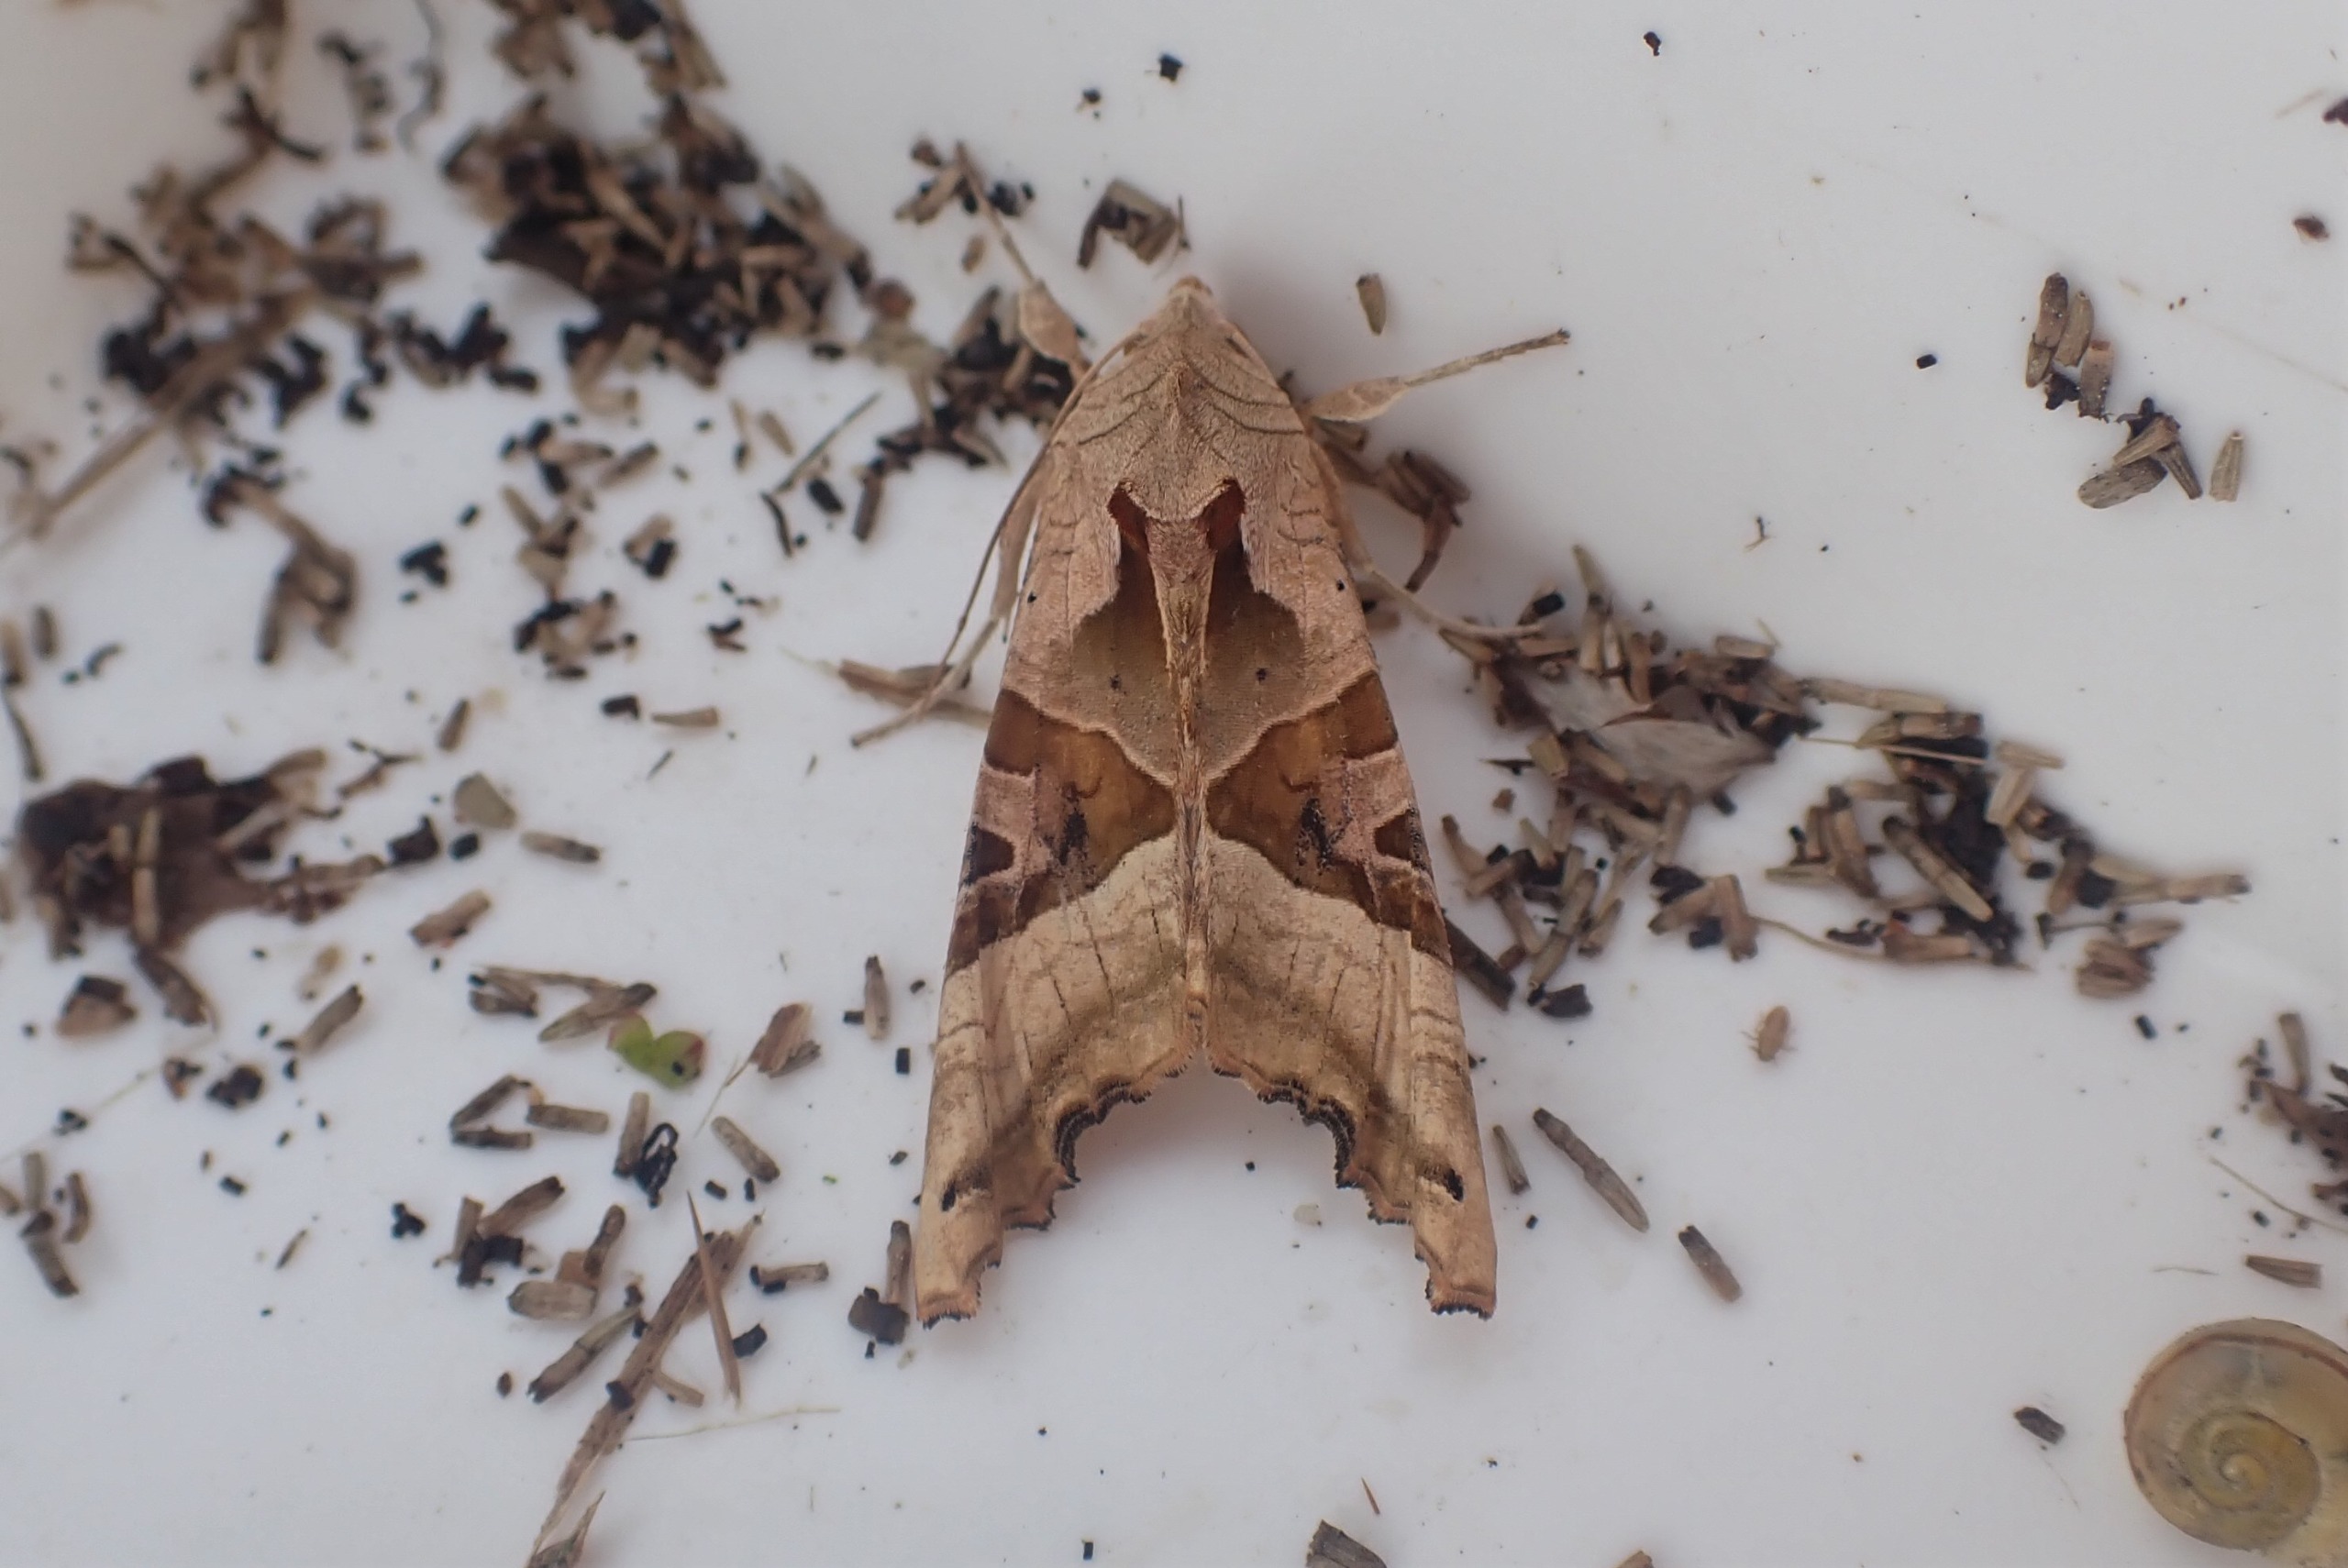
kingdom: Animalia
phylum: Arthropoda
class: Insecta
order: Lepidoptera
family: Noctuidae
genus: Phlogophora
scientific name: Phlogophora meticulosa
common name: Agatugle
